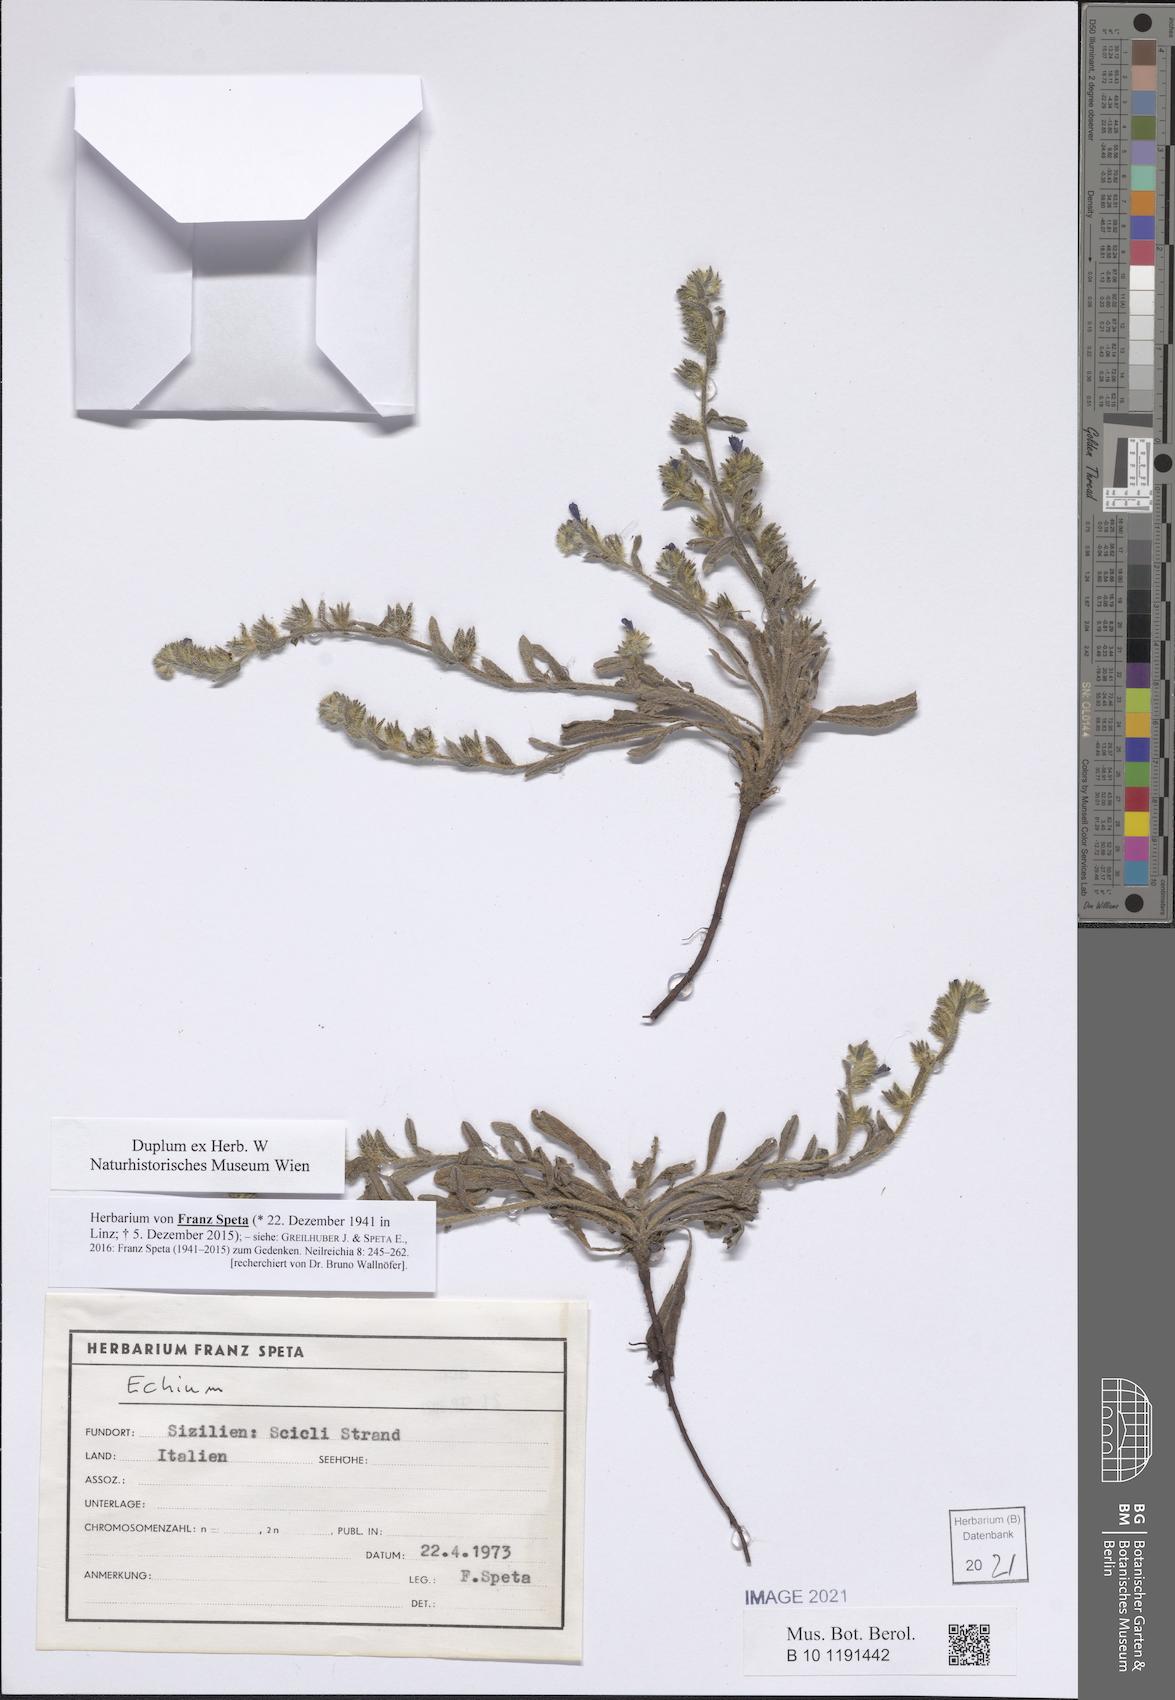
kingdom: Plantae
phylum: Tracheophyta
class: Magnoliopsida
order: Boraginales
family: Boraginaceae
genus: Echium
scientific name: Echium
